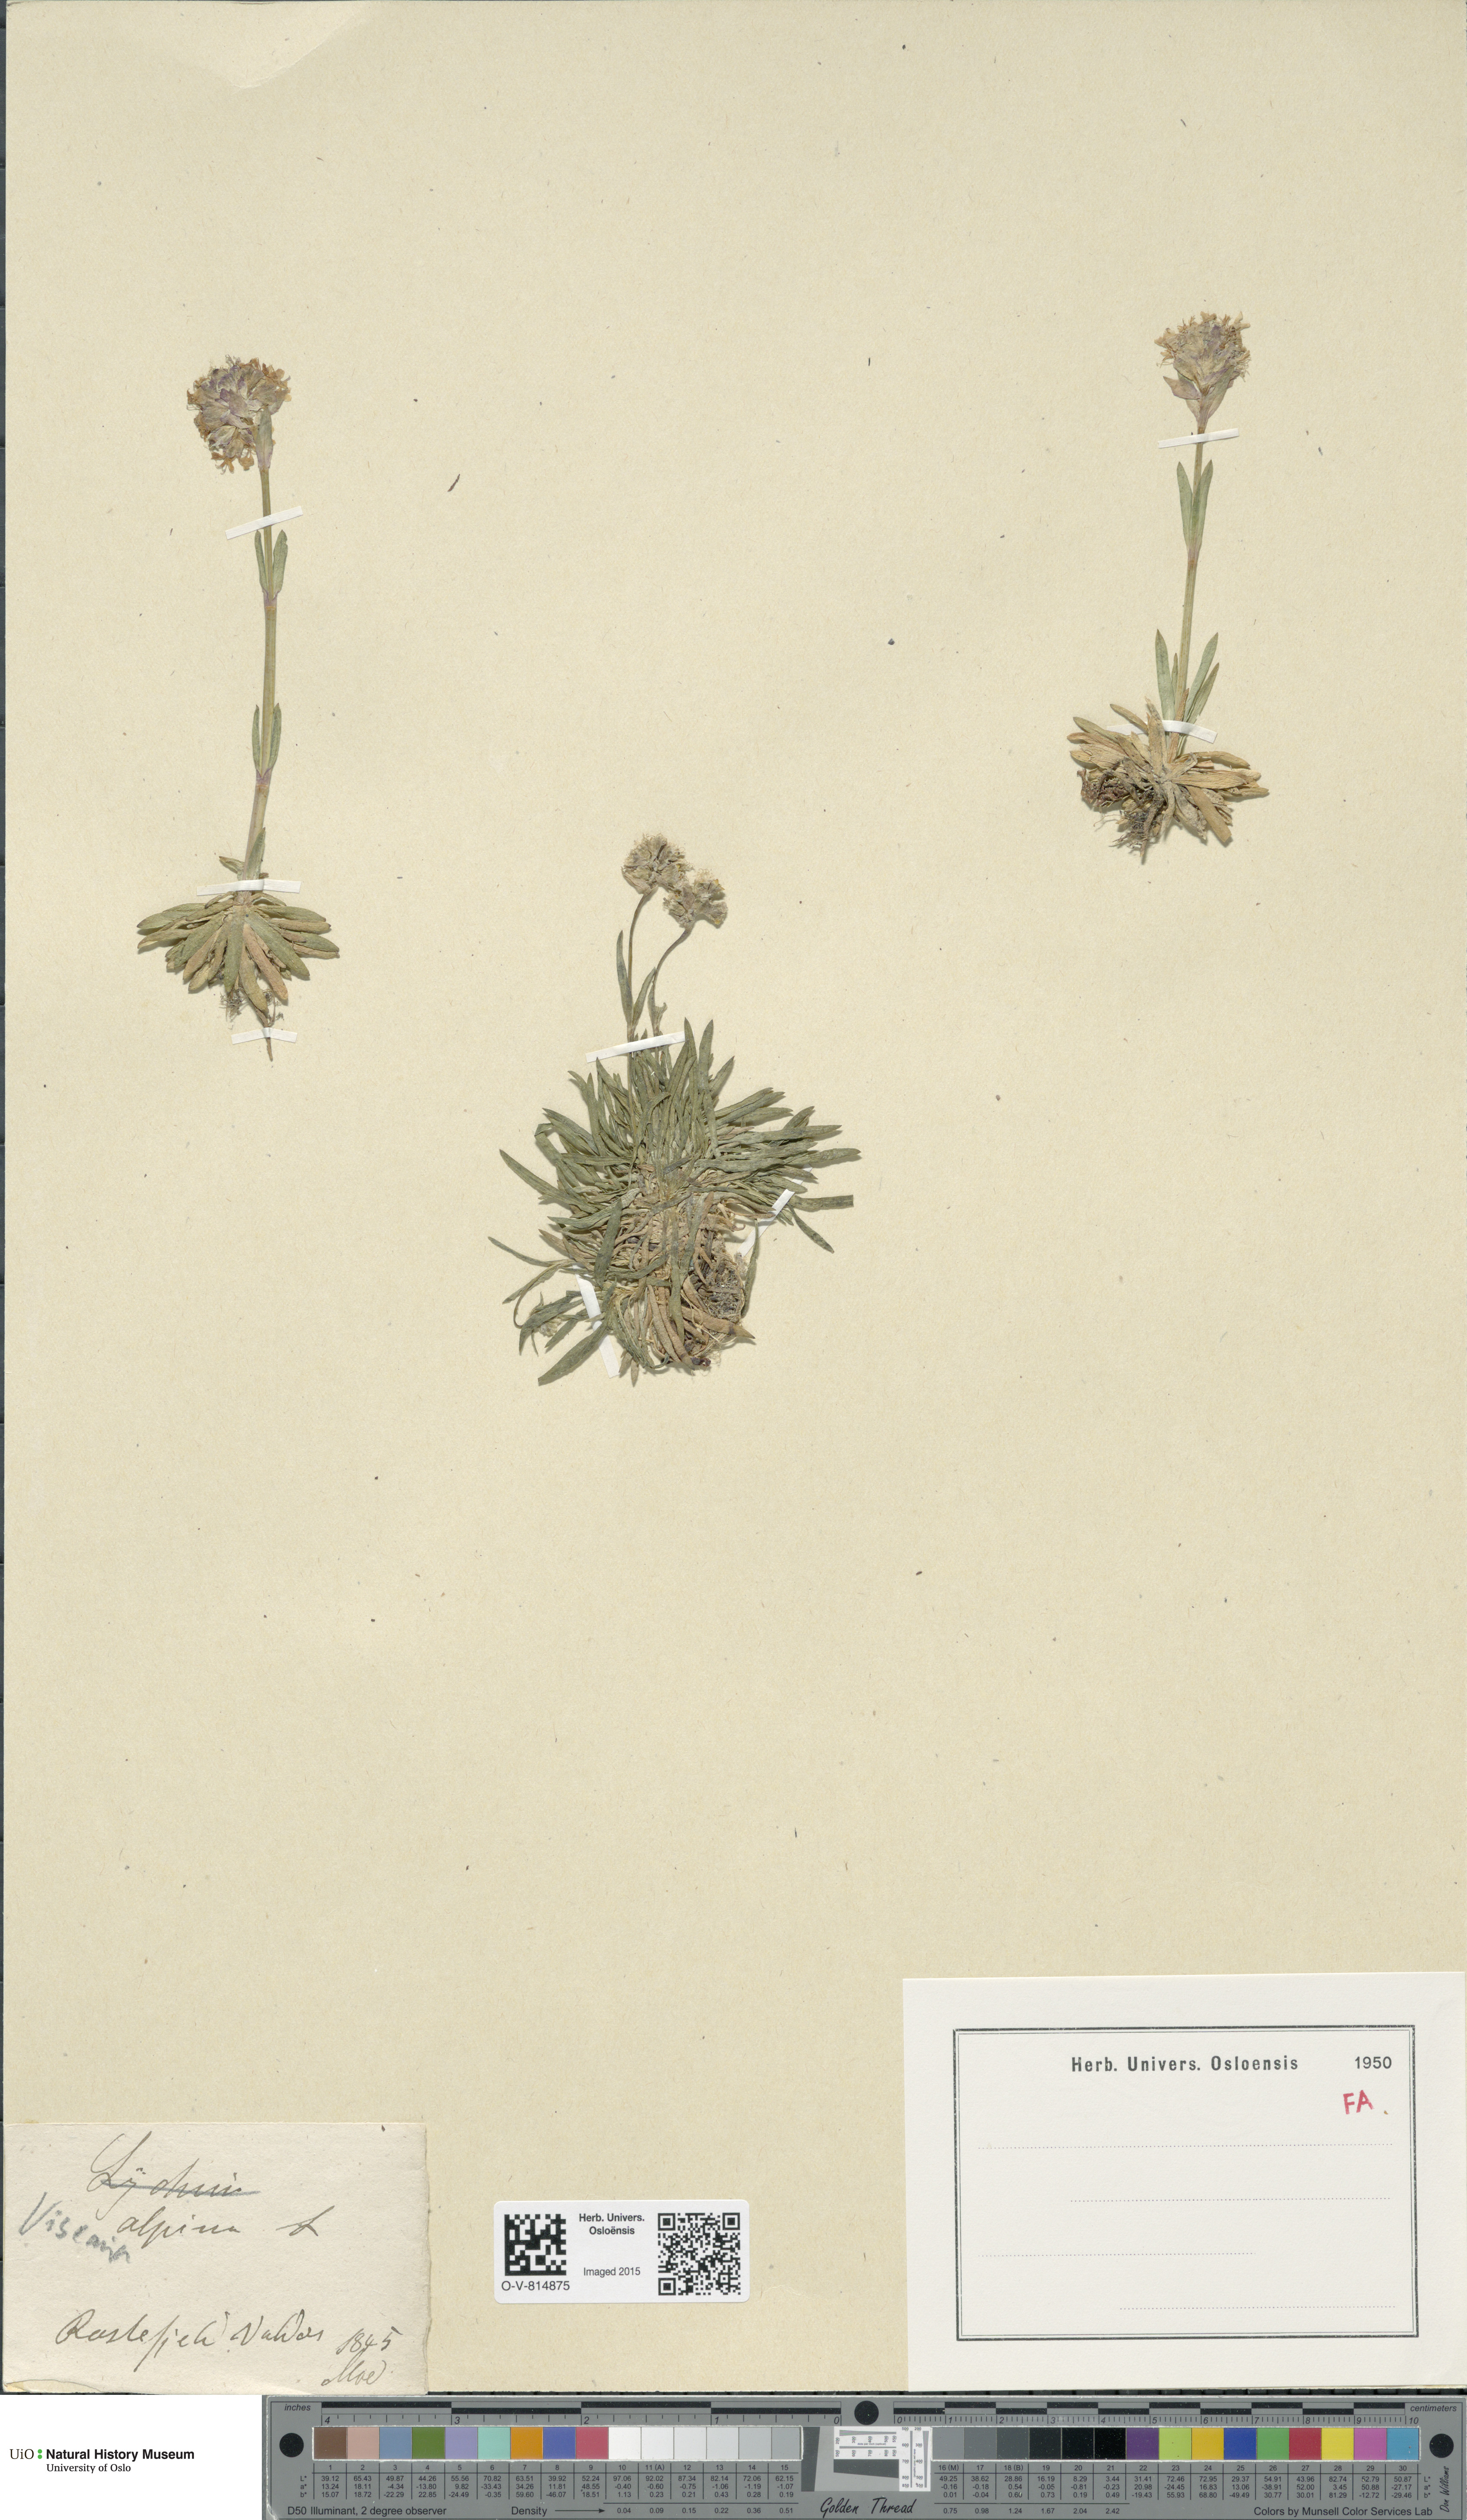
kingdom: Plantae
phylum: Tracheophyta
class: Magnoliopsida
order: Caryophyllales
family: Caryophyllaceae
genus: Viscaria
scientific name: Viscaria alpina
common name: Alpine campion
